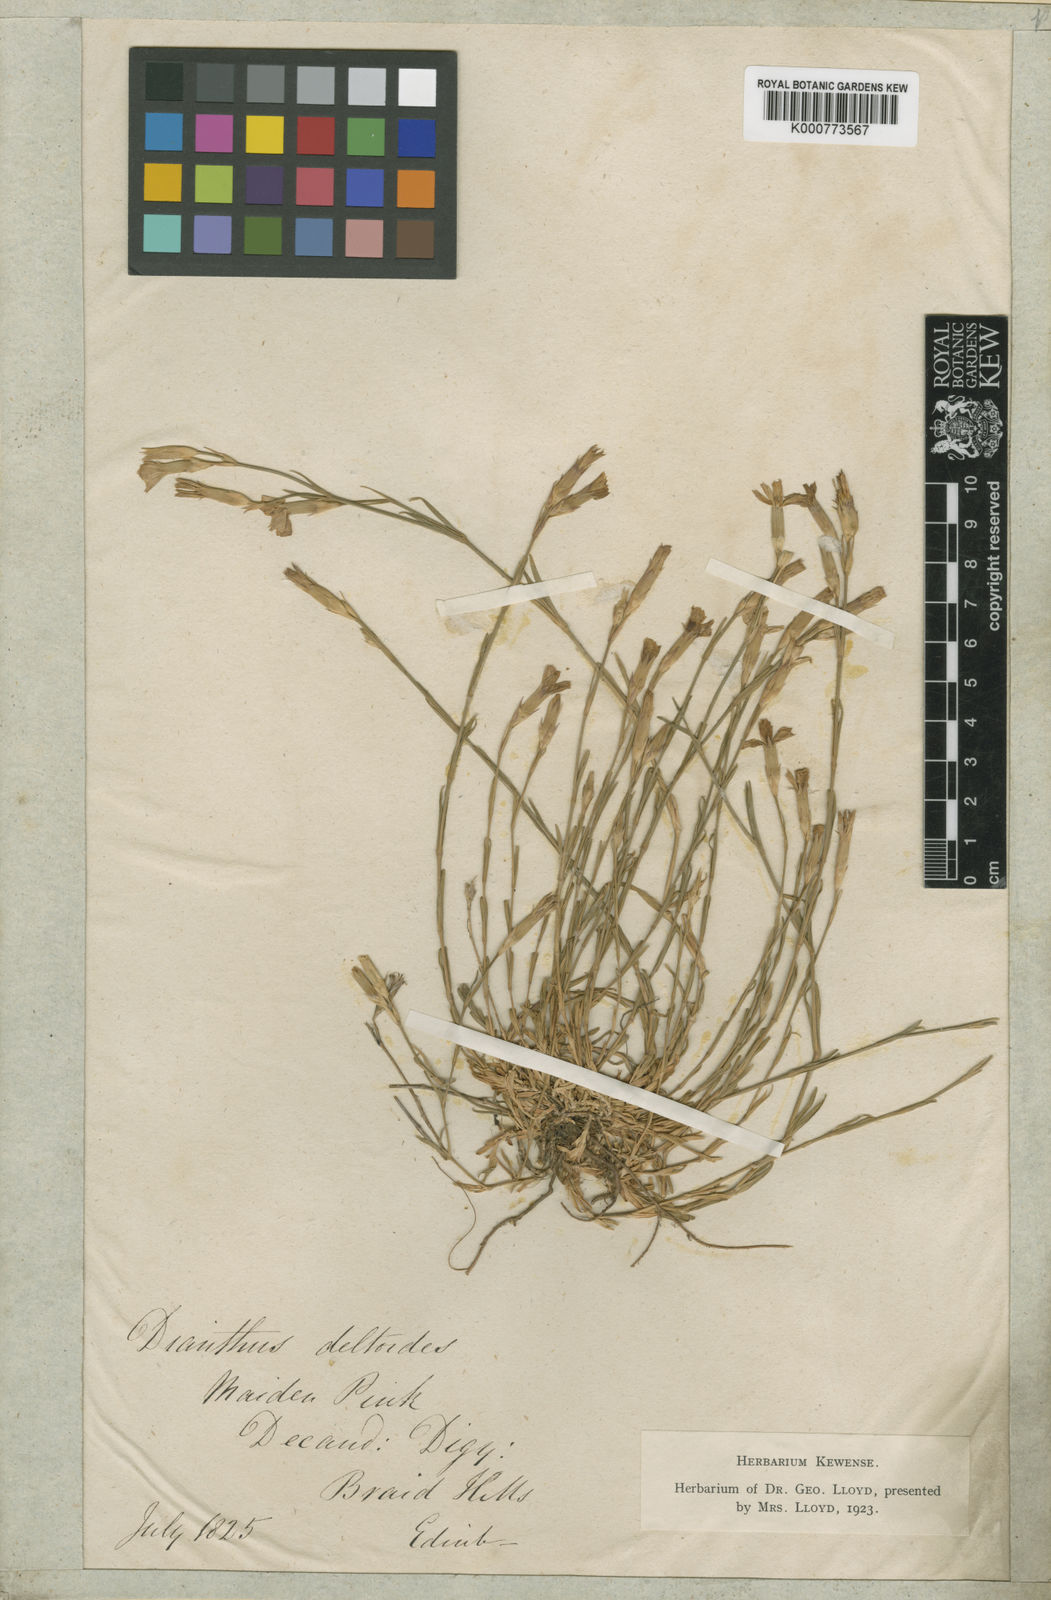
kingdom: Plantae
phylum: Tracheophyta
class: Magnoliopsida
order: Caryophyllales
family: Caryophyllaceae
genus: Dianthus
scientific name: Dianthus deltoides
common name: Maiden pink
